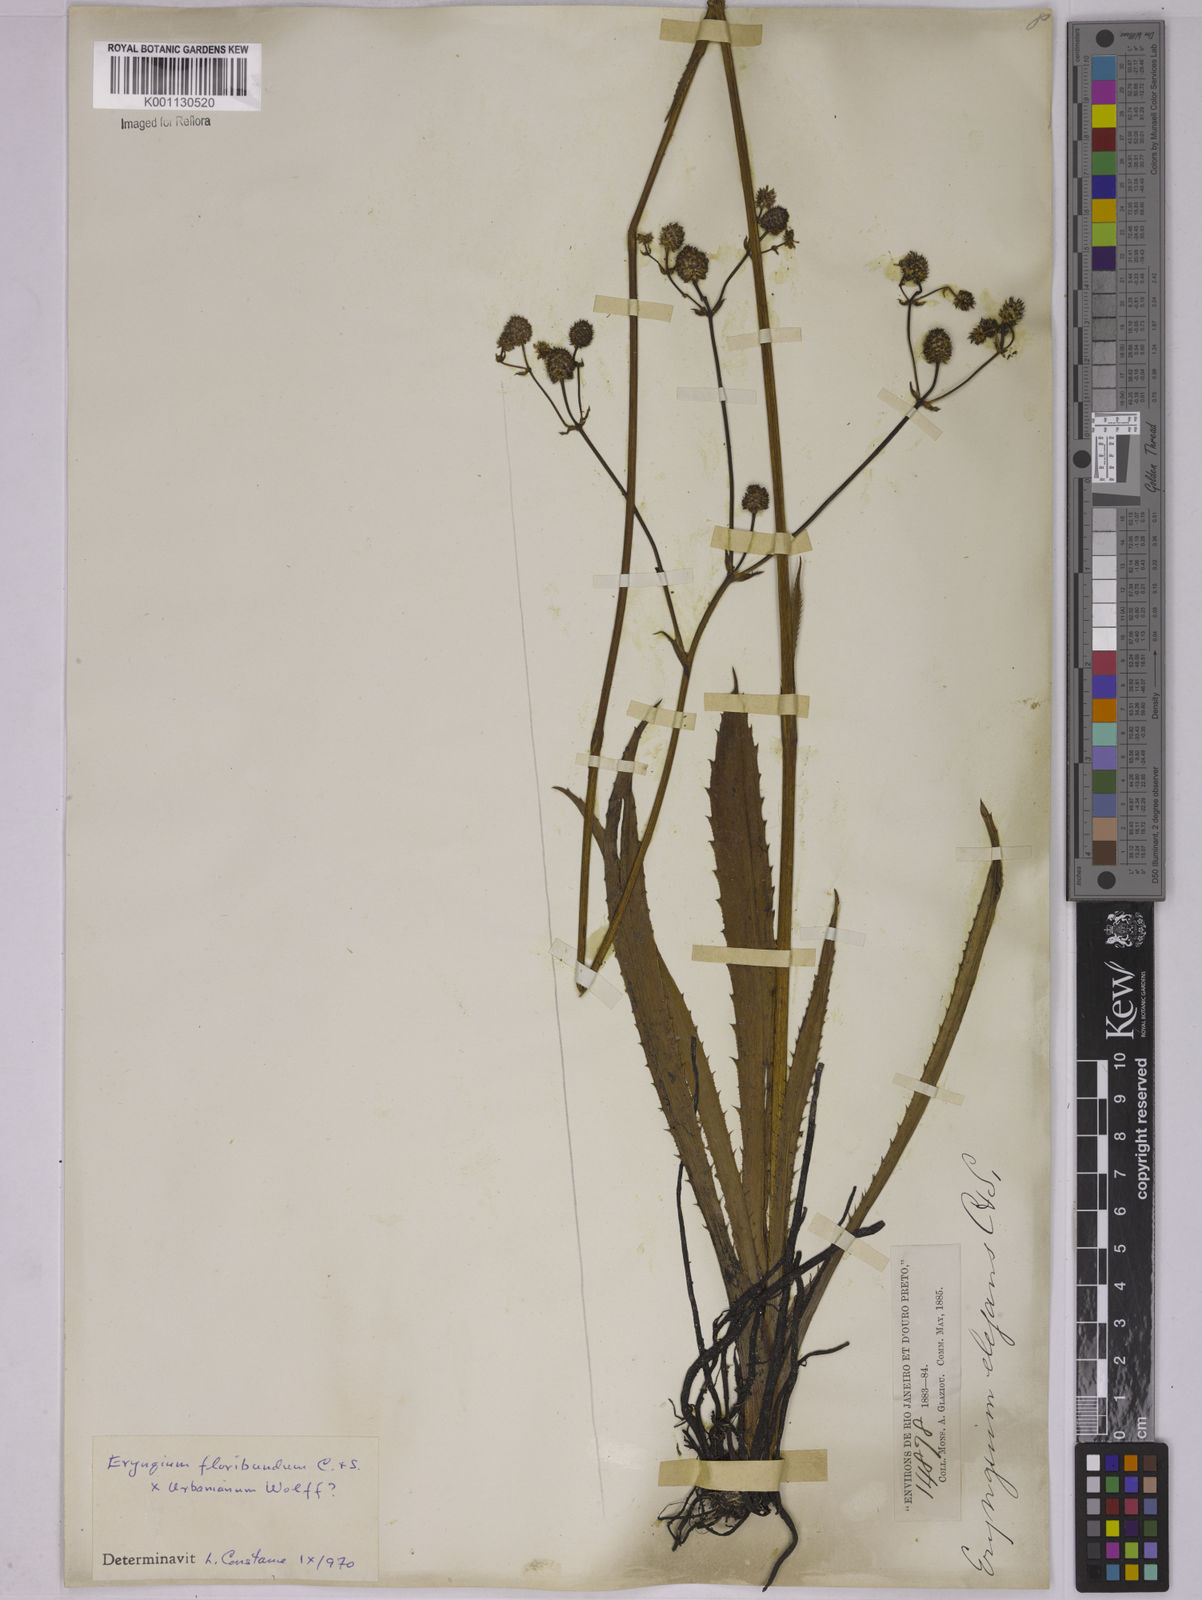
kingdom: Plantae
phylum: Tracheophyta
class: Magnoliopsida
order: Apiales
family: Apiaceae
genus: Eryngium
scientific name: Eryngium
